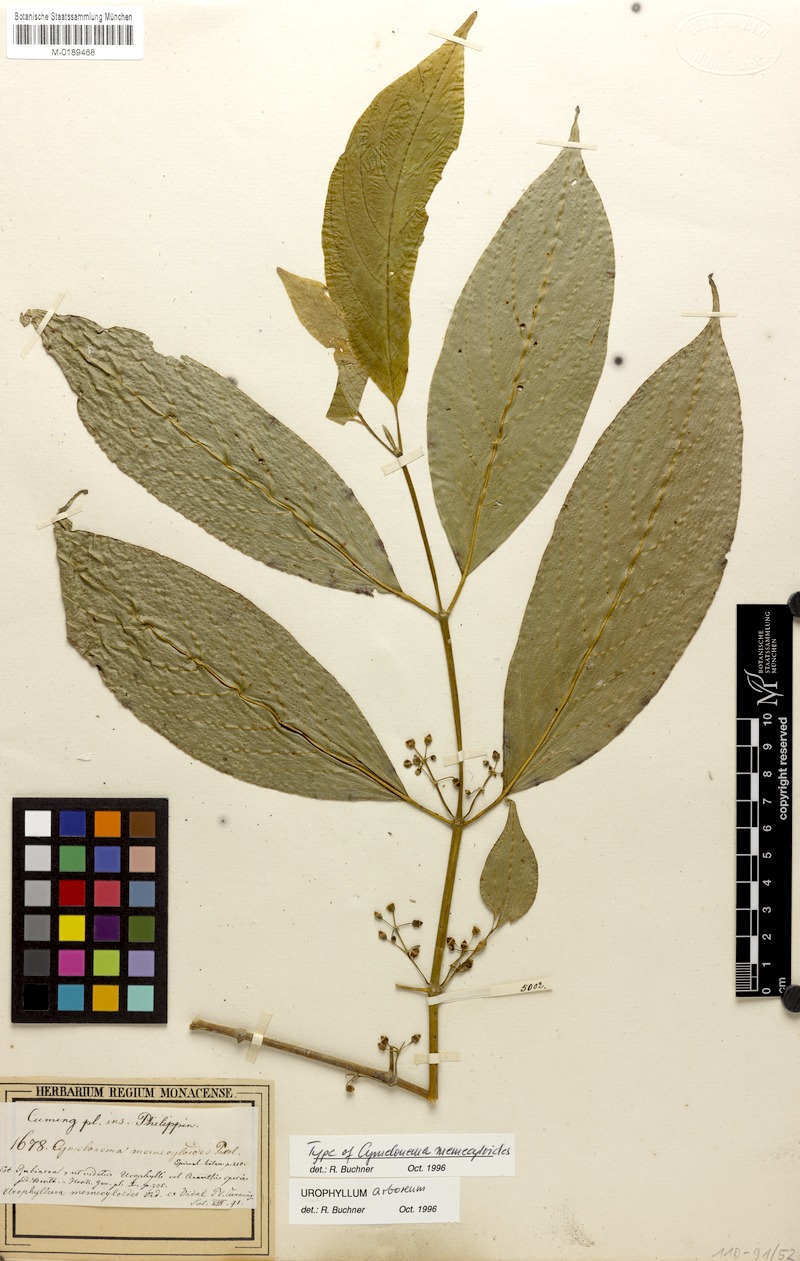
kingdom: Plantae
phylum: Tracheophyta
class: Magnoliopsida
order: Gentianales
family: Rubiaceae
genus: Urophyllum
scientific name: Urophyllum arboreum
